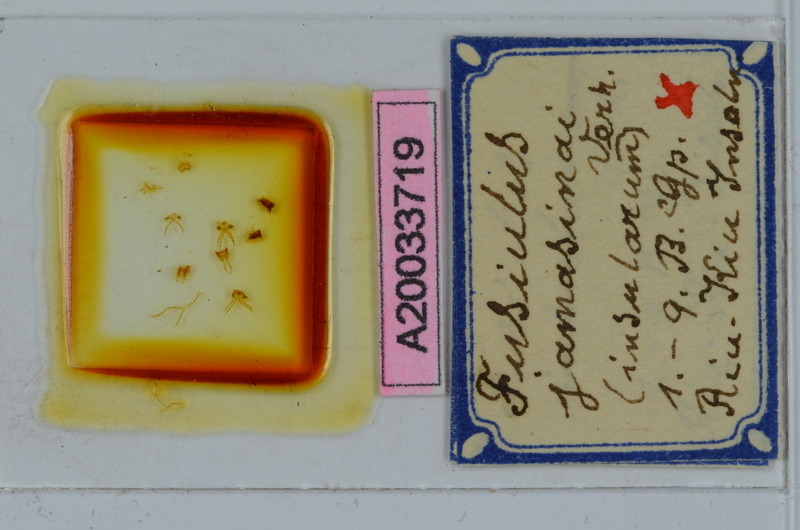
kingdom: Animalia
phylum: Arthropoda
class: Diplopoda
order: Julida
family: Julidae
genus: Anaulaciulus
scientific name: Anaulaciulus yamashinai
